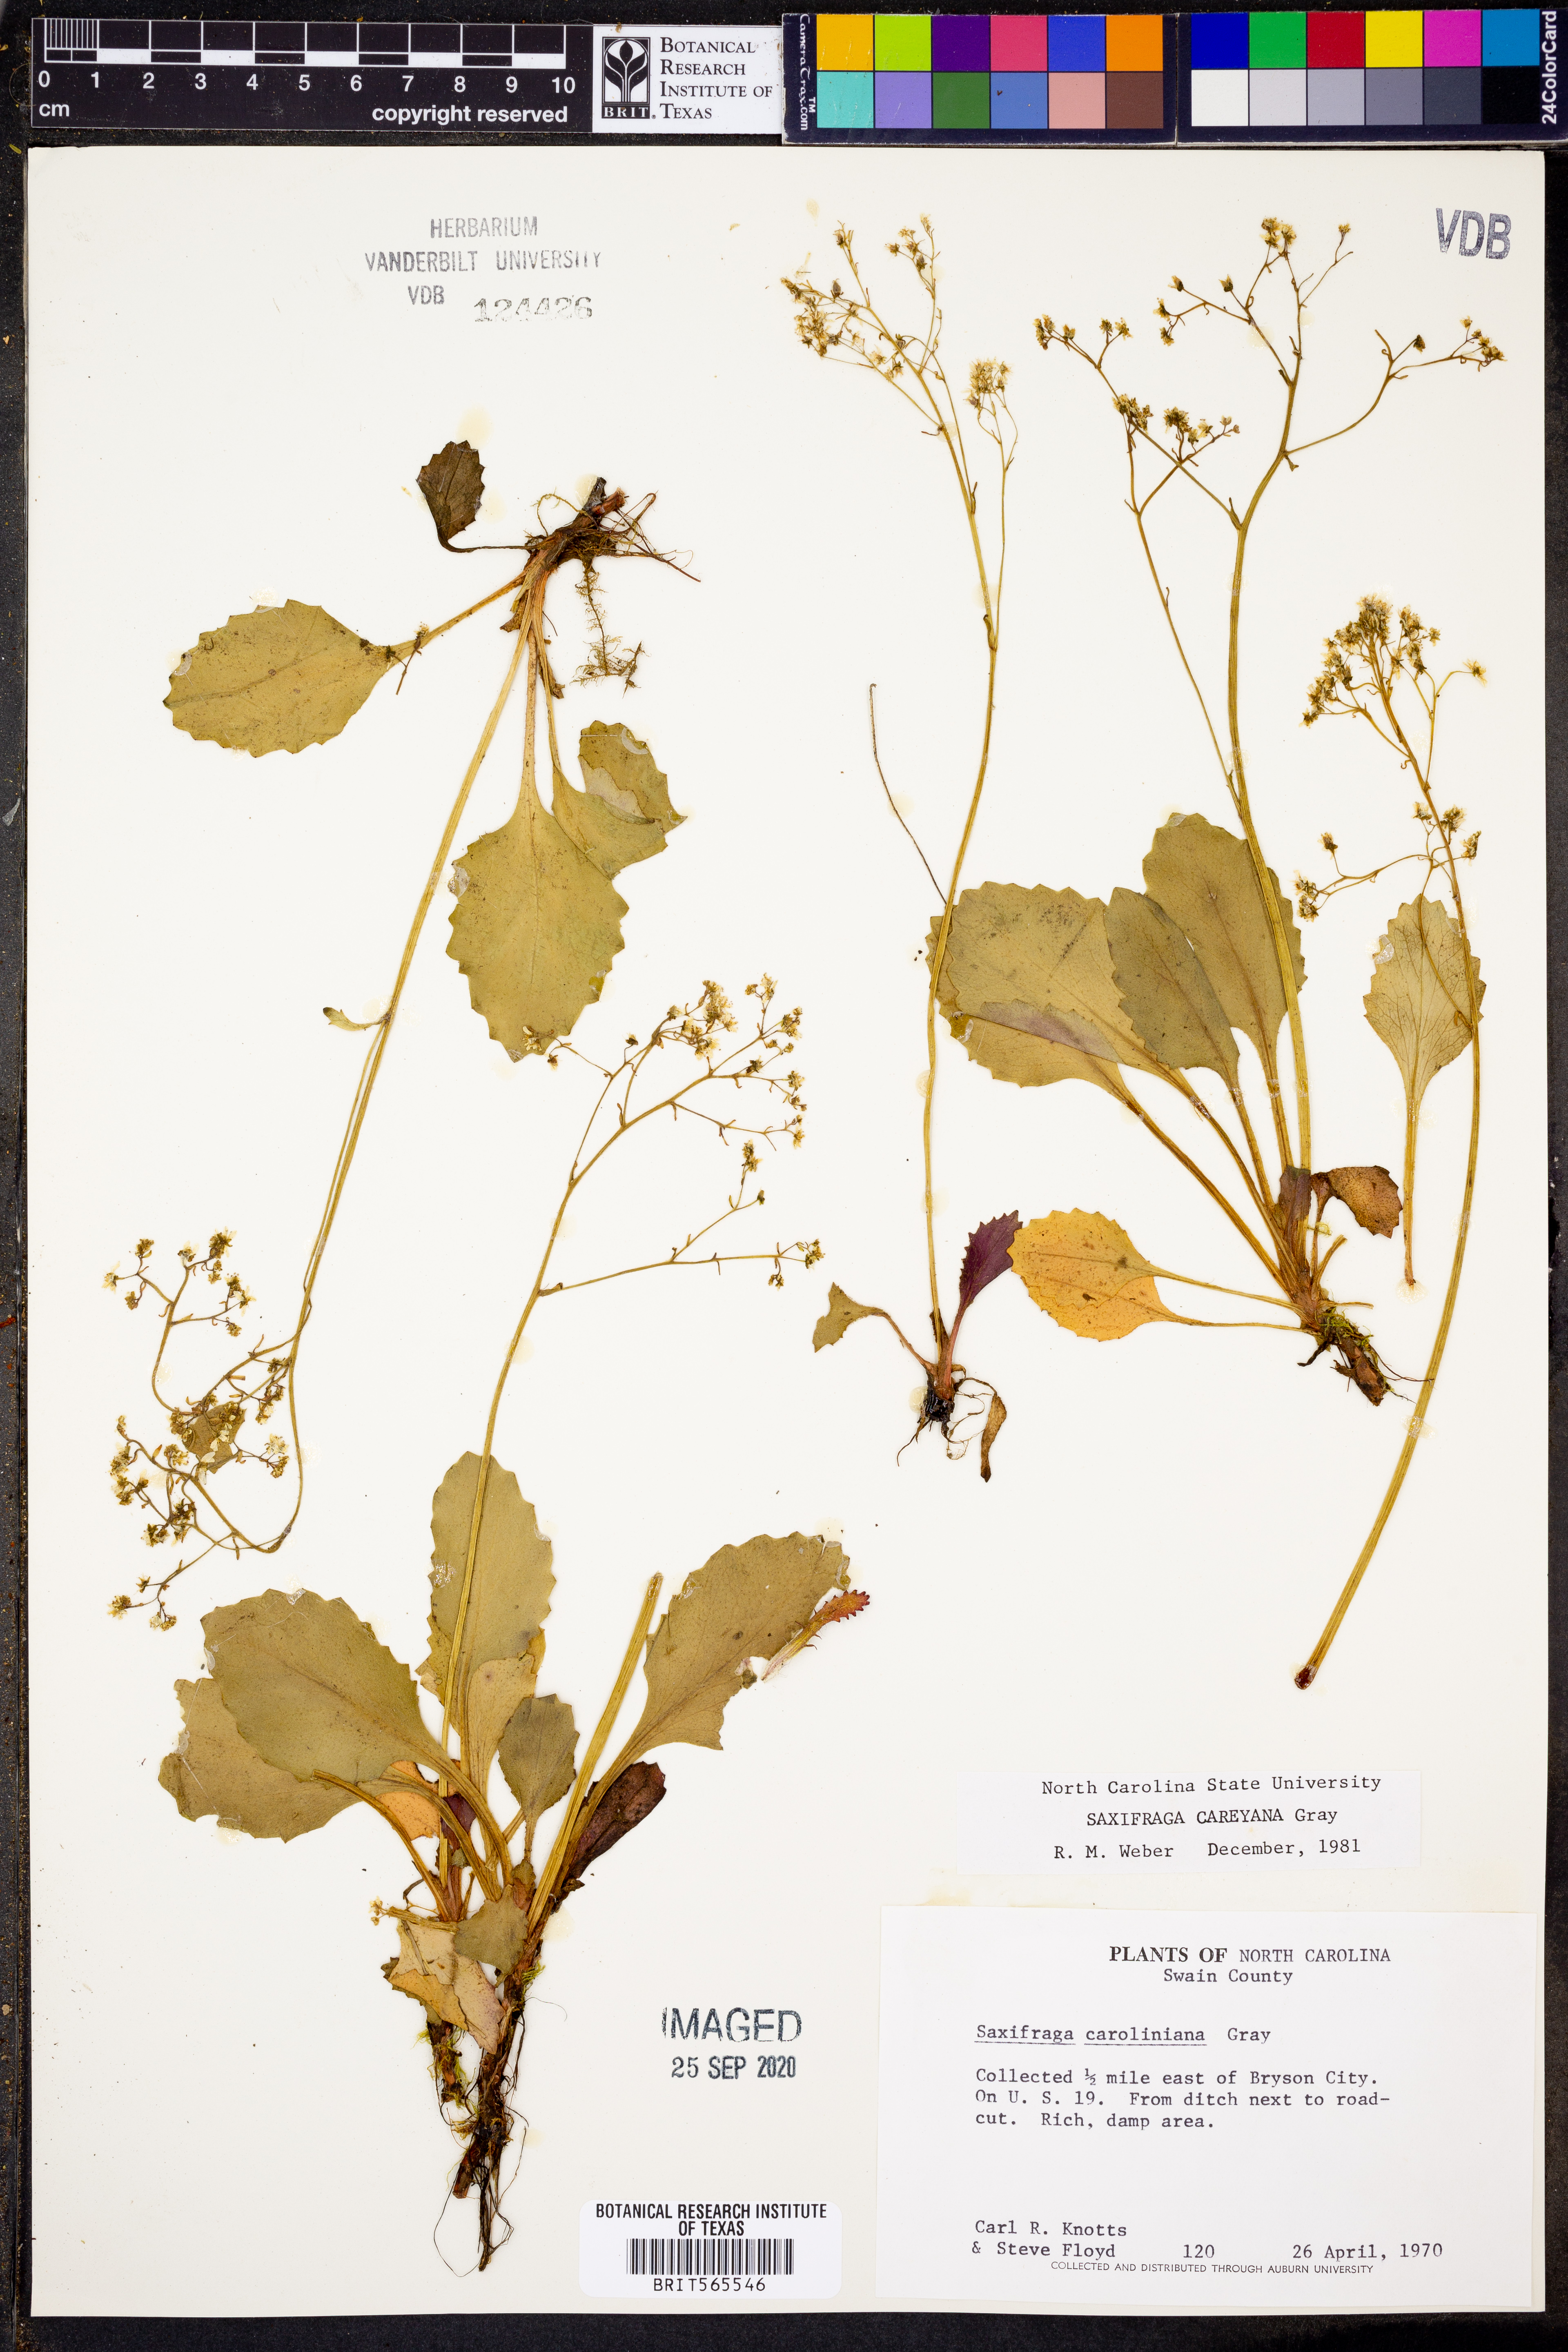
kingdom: Plantae
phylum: Tracheophyta
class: Magnoliopsida
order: Saxifragales
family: Saxifragaceae
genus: Micranthes
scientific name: Micranthes careyana
